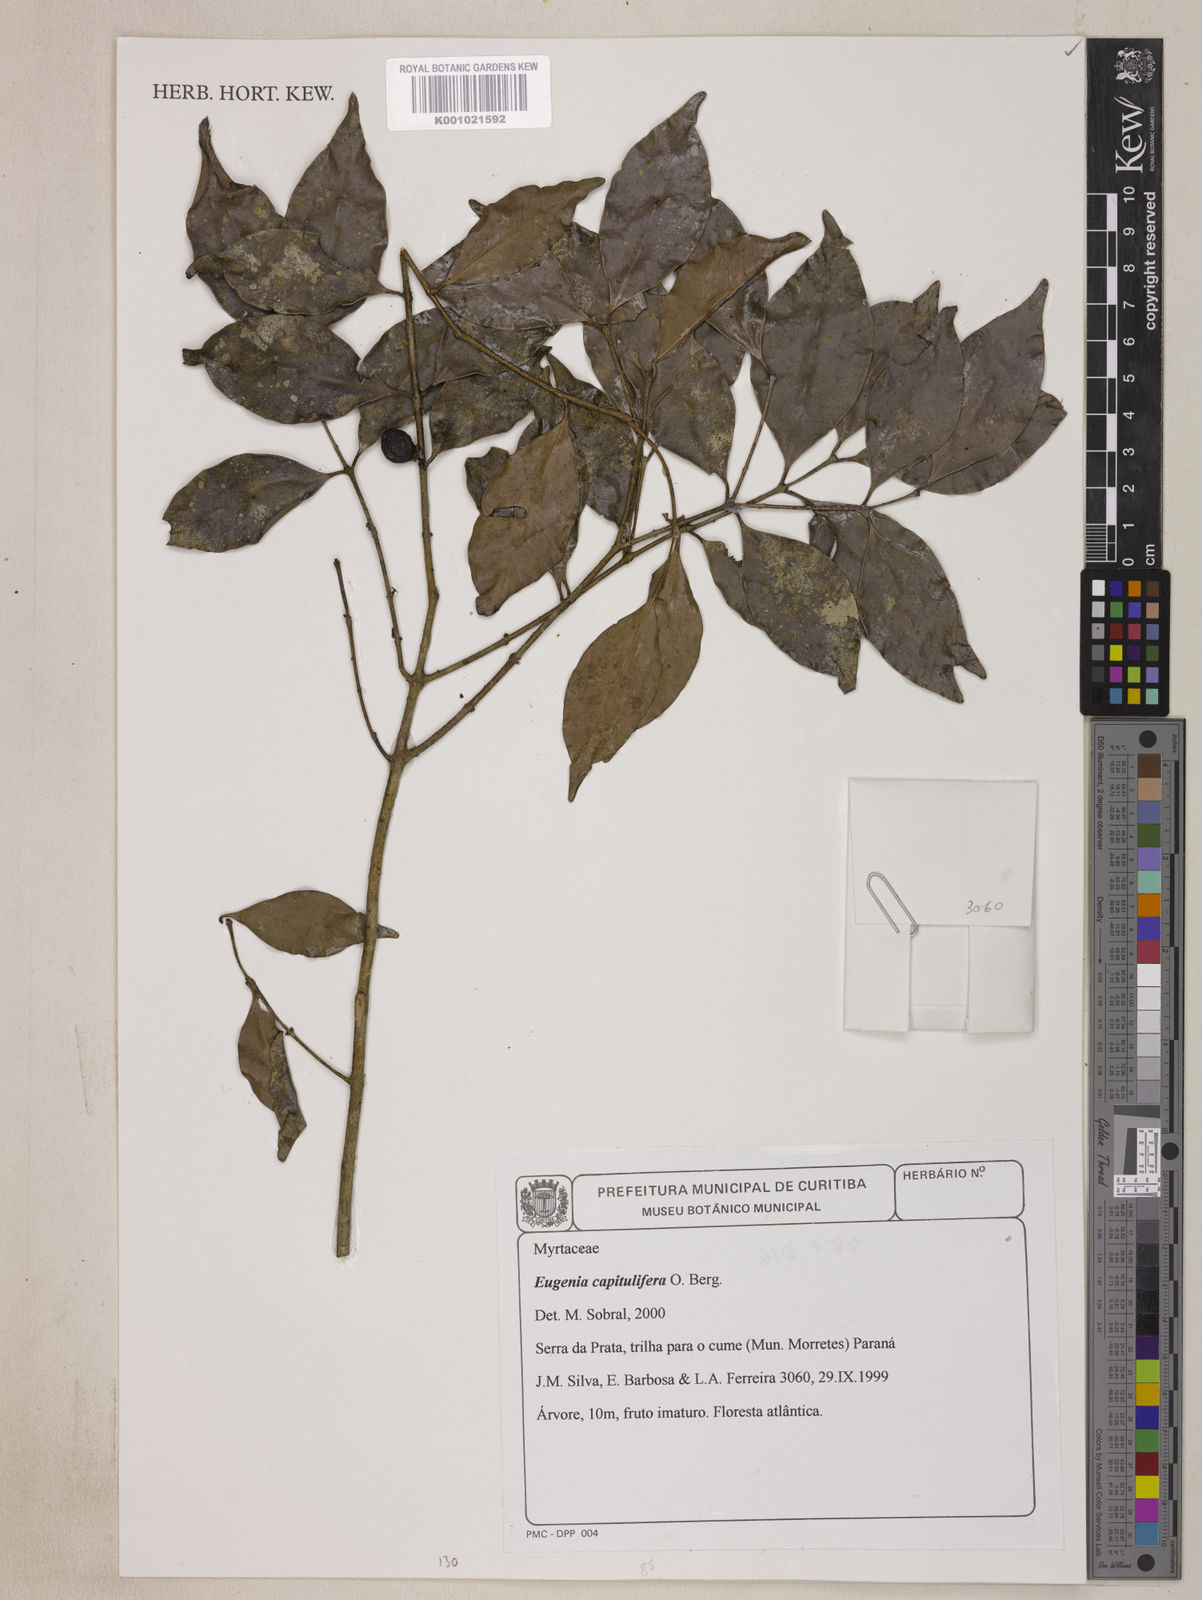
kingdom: Plantae
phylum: Tracheophyta
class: Magnoliopsida
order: Myrtales
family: Myrtaceae
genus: Eugenia
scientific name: Eugenia capitulifera
